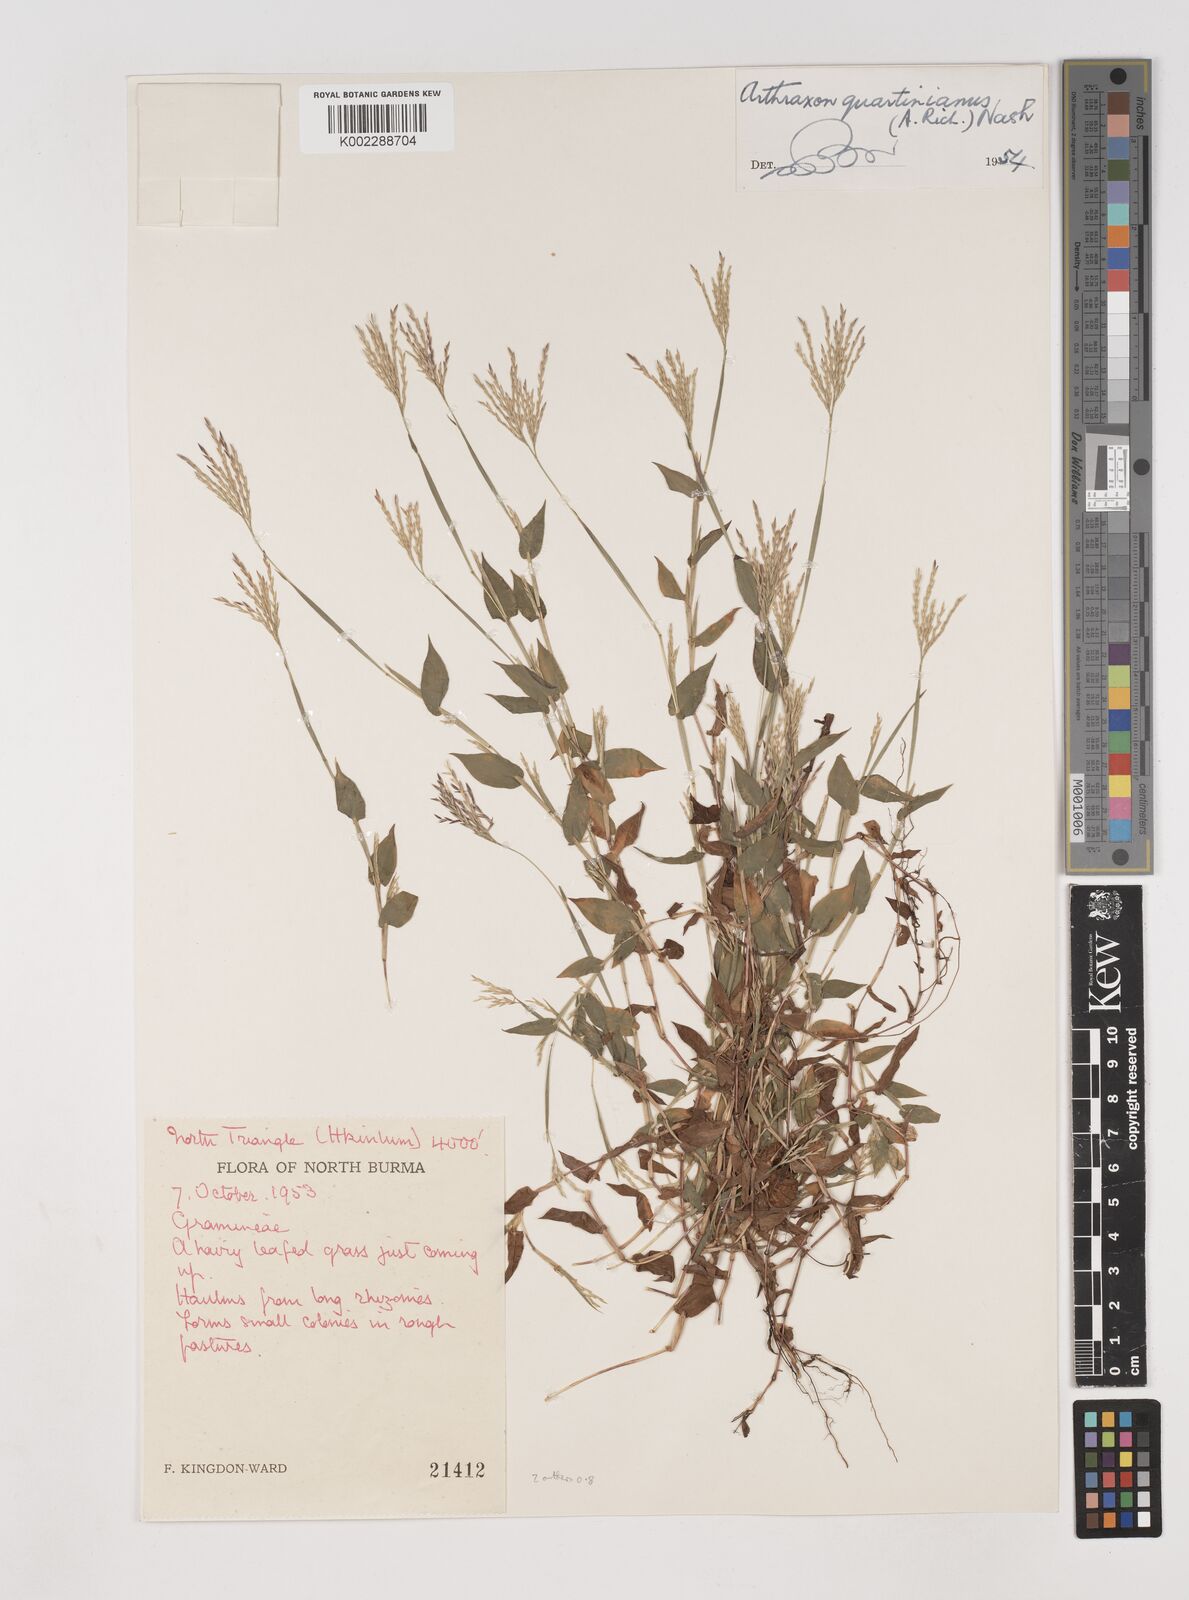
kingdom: Plantae
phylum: Tracheophyta
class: Liliopsida
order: Poales
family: Poaceae
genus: Arthraxon
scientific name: Arthraxon hispidus
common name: Small carpgrass
